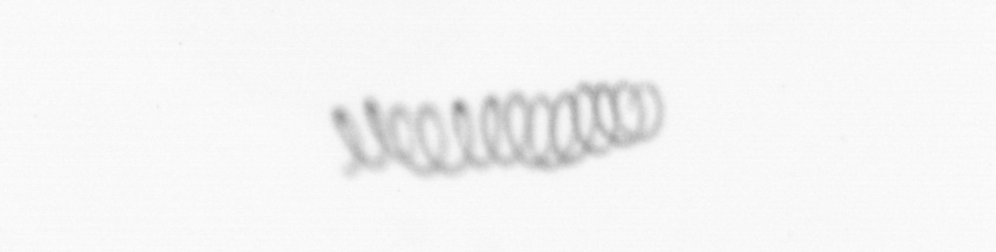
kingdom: Chromista
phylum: Ochrophyta
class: Bacillariophyceae
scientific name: Bacillariophyceae
